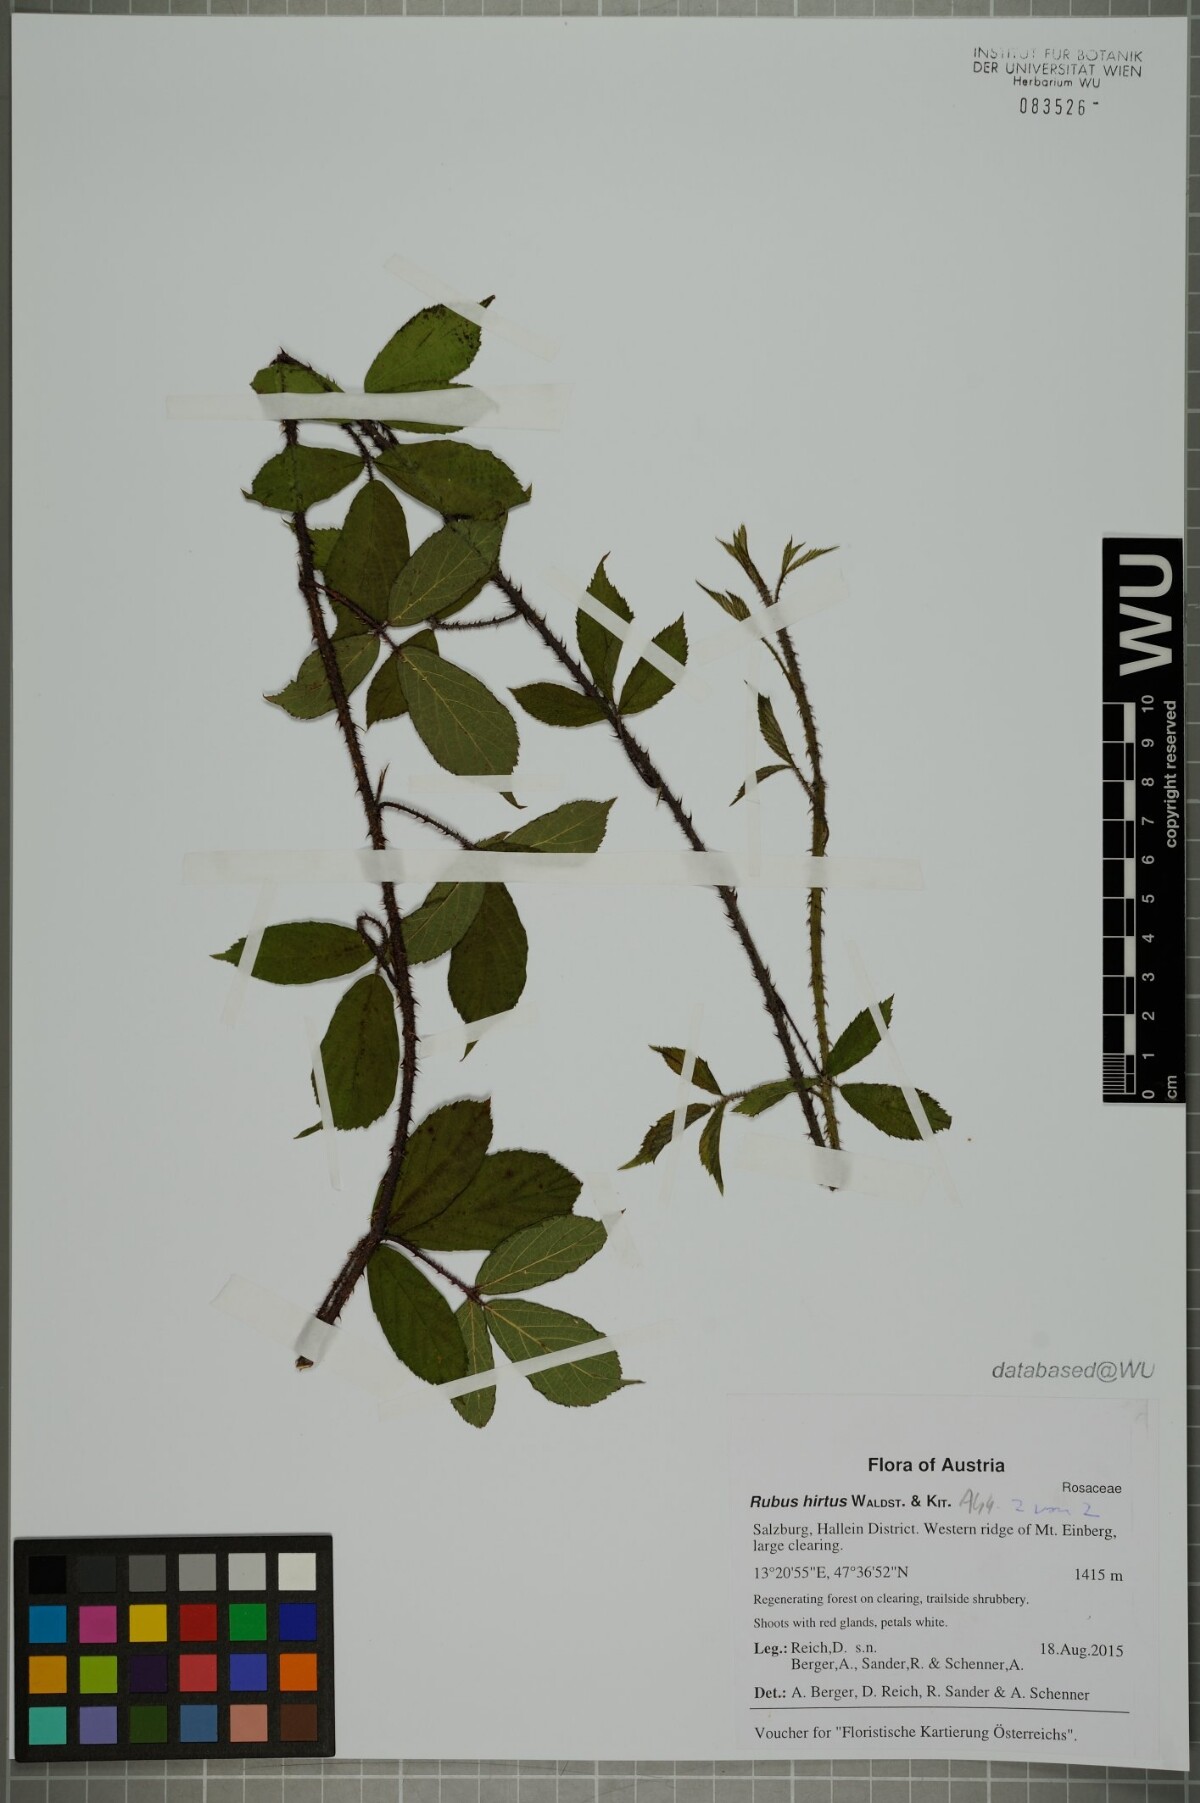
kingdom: Plantae
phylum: Tracheophyta
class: Magnoliopsida
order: Rosales
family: Rosaceae
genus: Rubus
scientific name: Rubus hirtus
